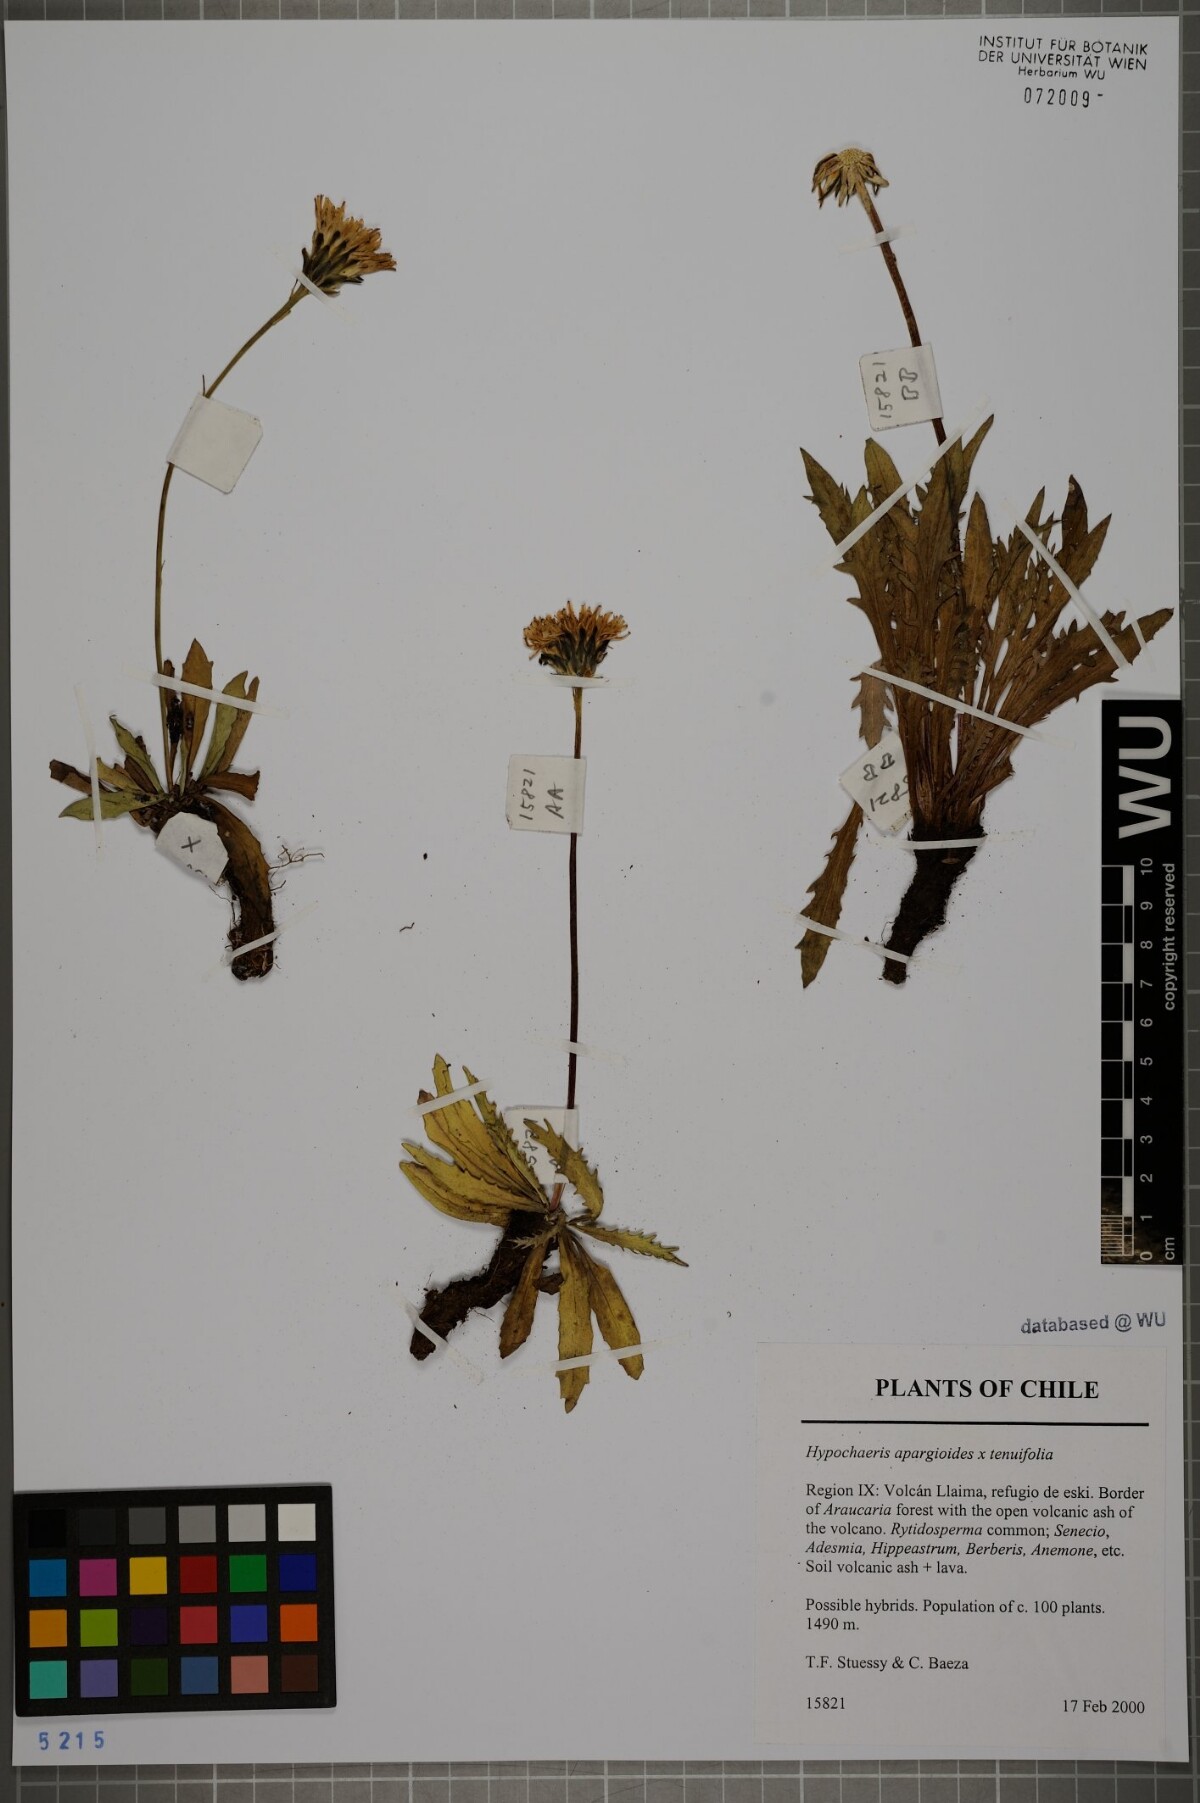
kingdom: Plantae
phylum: Tracheophyta
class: Magnoliopsida
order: Asterales
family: Asteraceae
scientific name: Asteraceae
